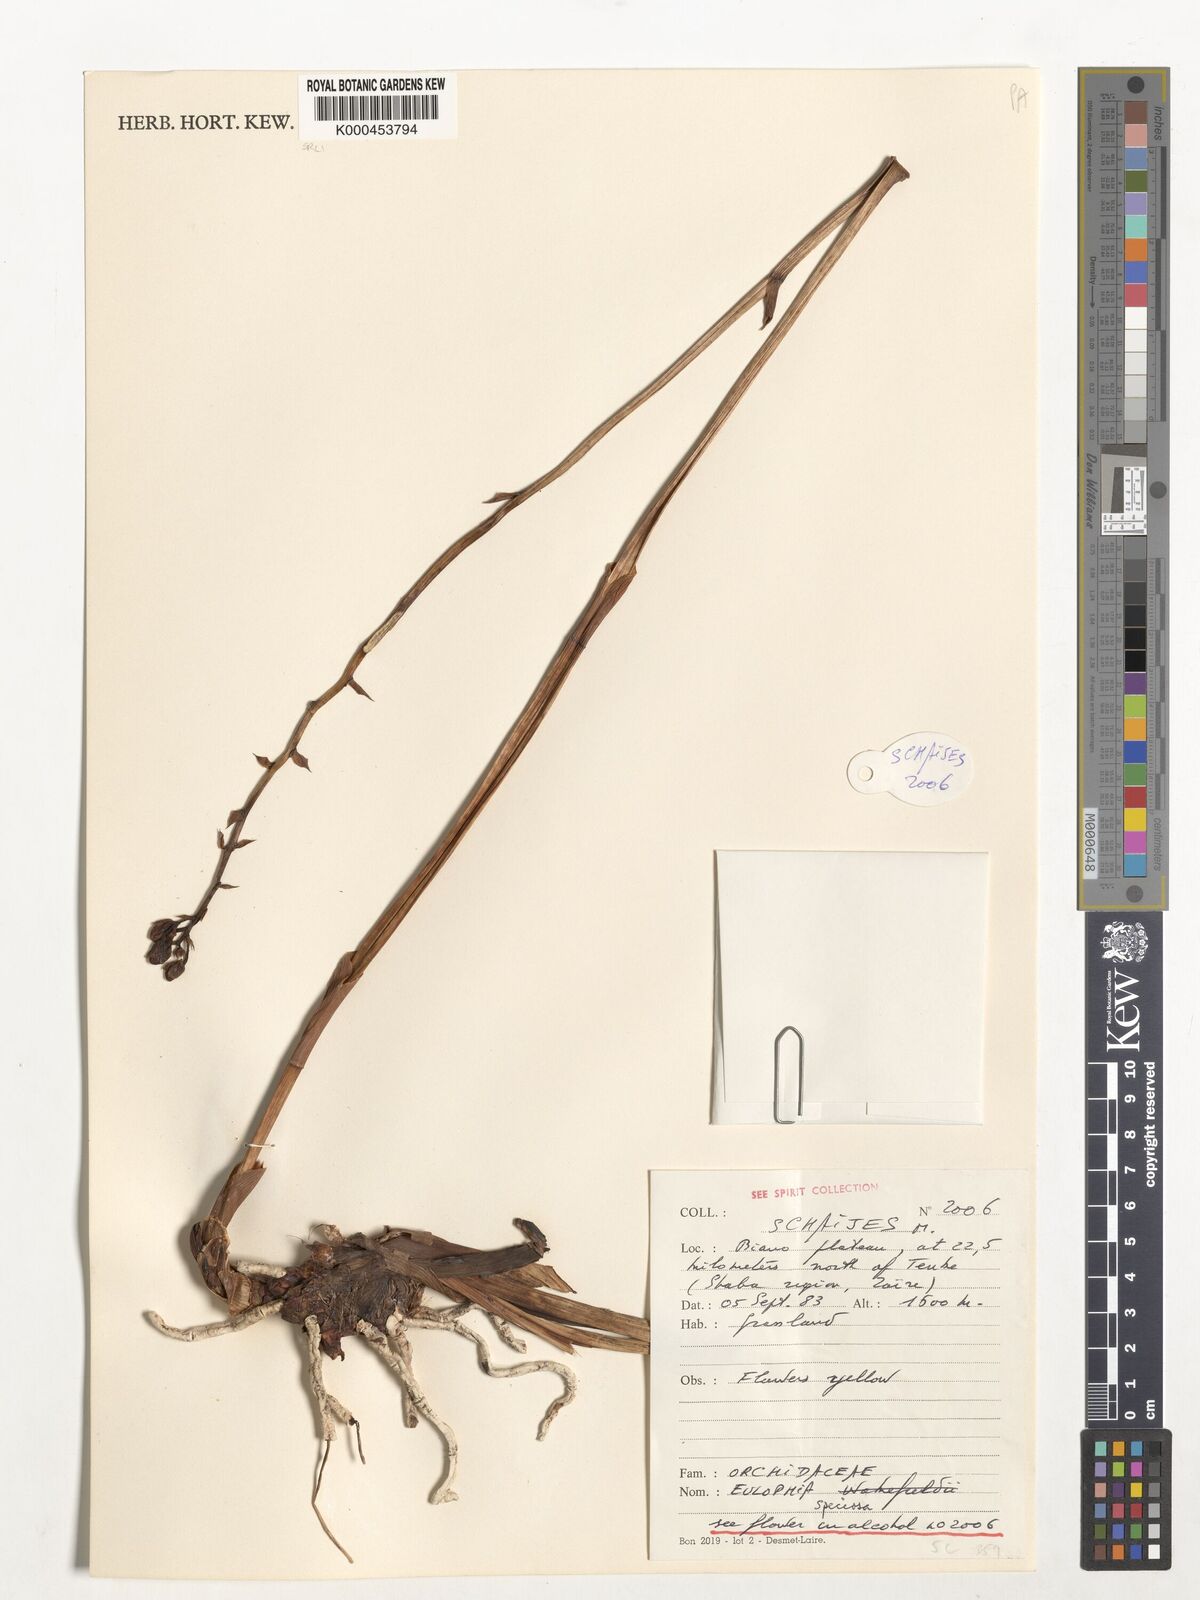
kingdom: Plantae
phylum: Tracheophyta
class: Liliopsida
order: Asparagales
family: Orchidaceae
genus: Eulophia
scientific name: Eulophia speciosa
